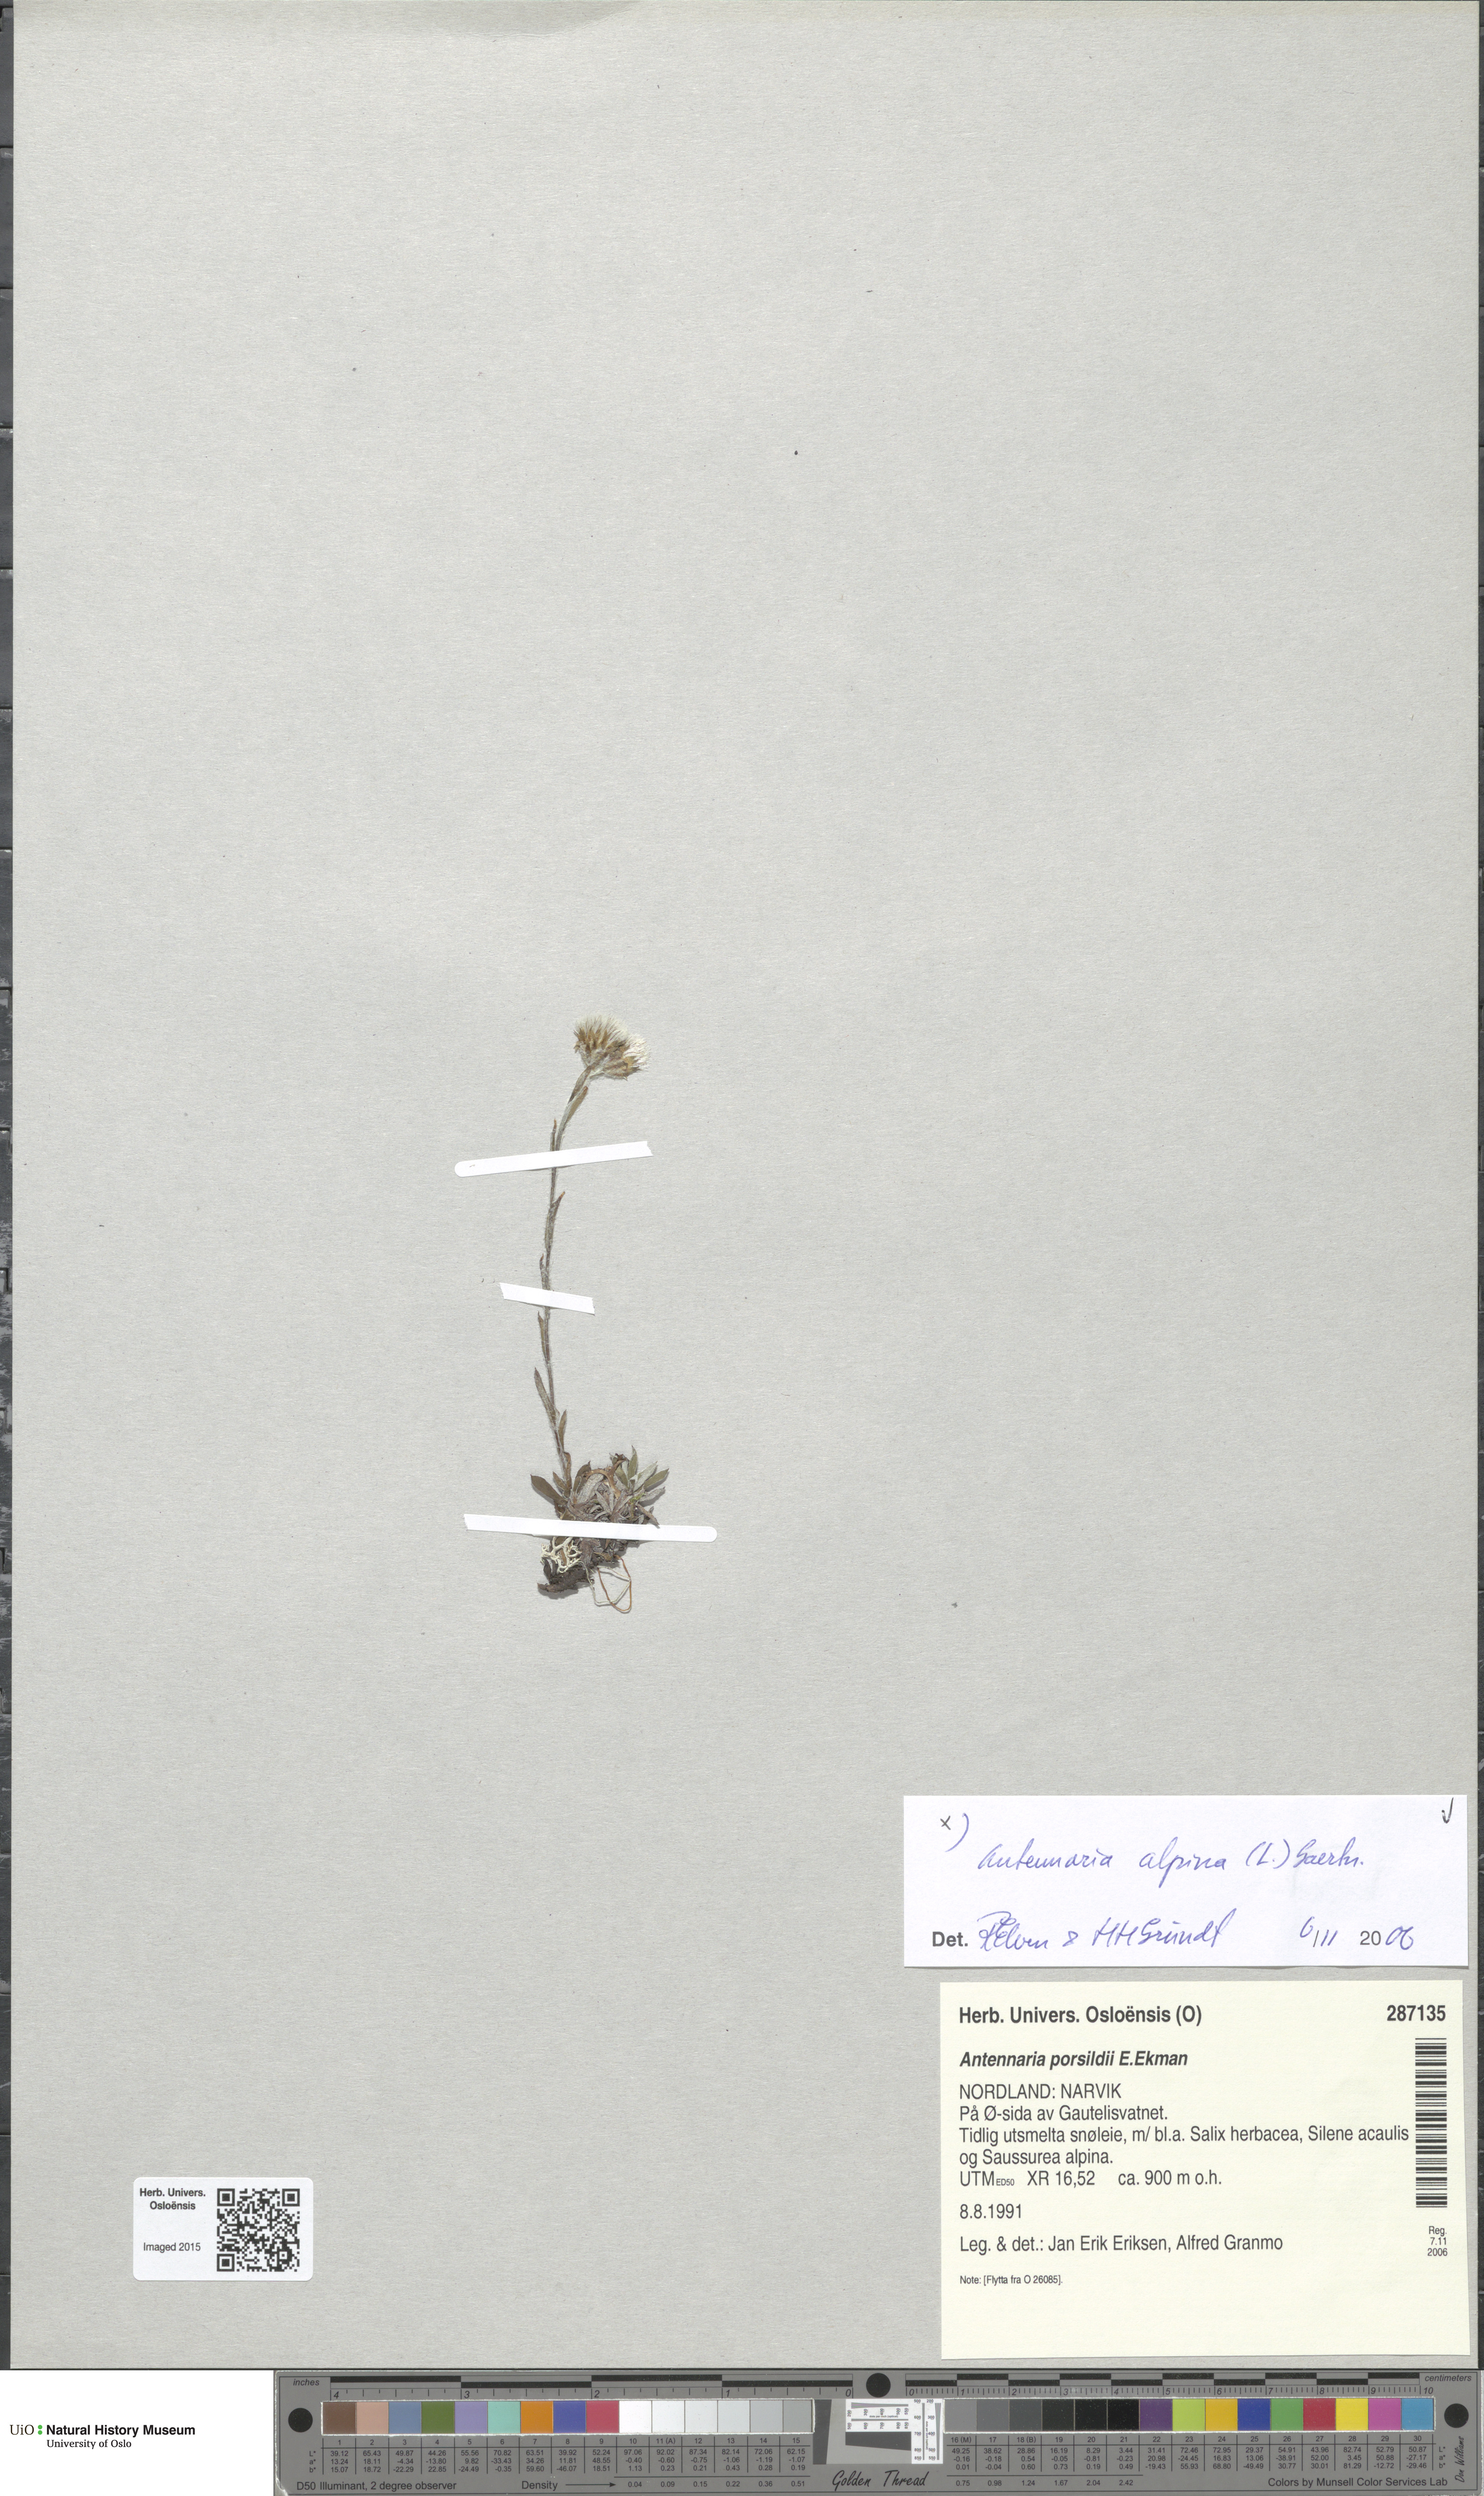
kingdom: Plantae
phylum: Tracheophyta
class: Magnoliopsida
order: Asterales
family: Asteraceae
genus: Antennaria
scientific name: Antennaria alpina
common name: Alpine pussytoes
